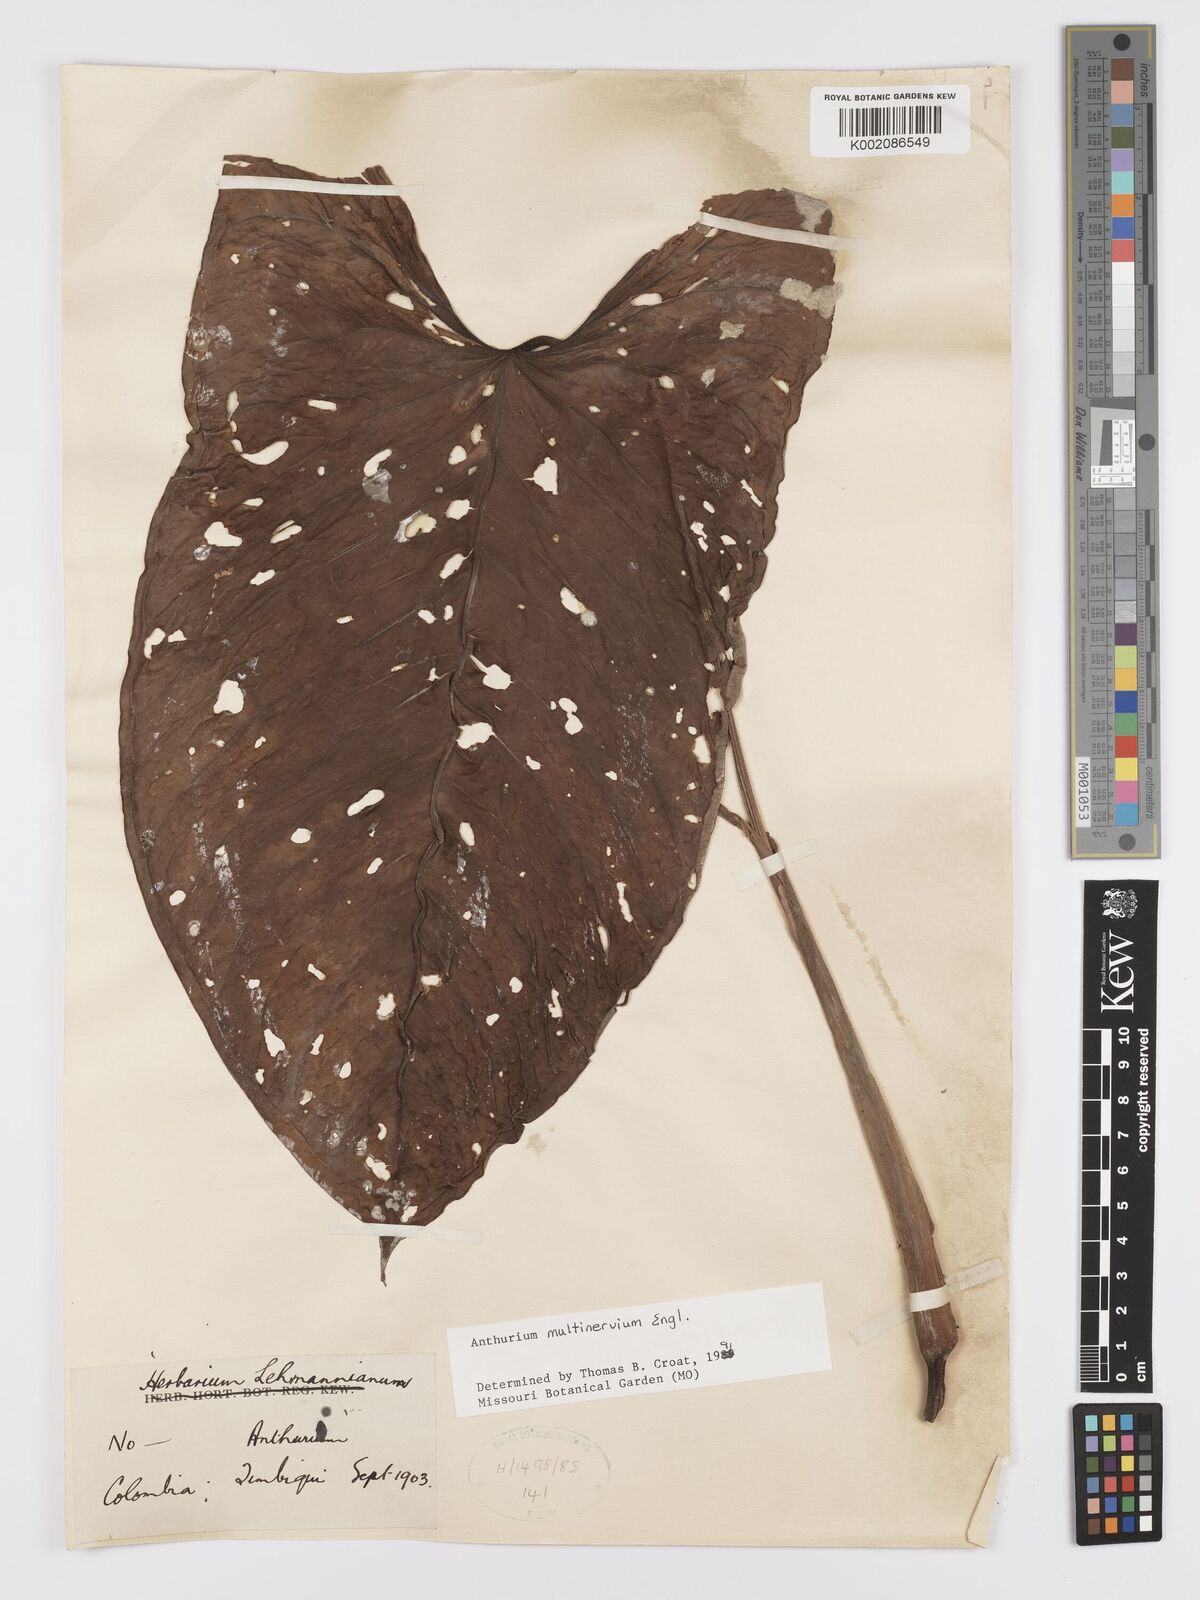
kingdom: Plantae
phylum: Tracheophyta
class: Liliopsida
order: Alismatales
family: Araceae
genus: Anthurium
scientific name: Anthurium multinervium
